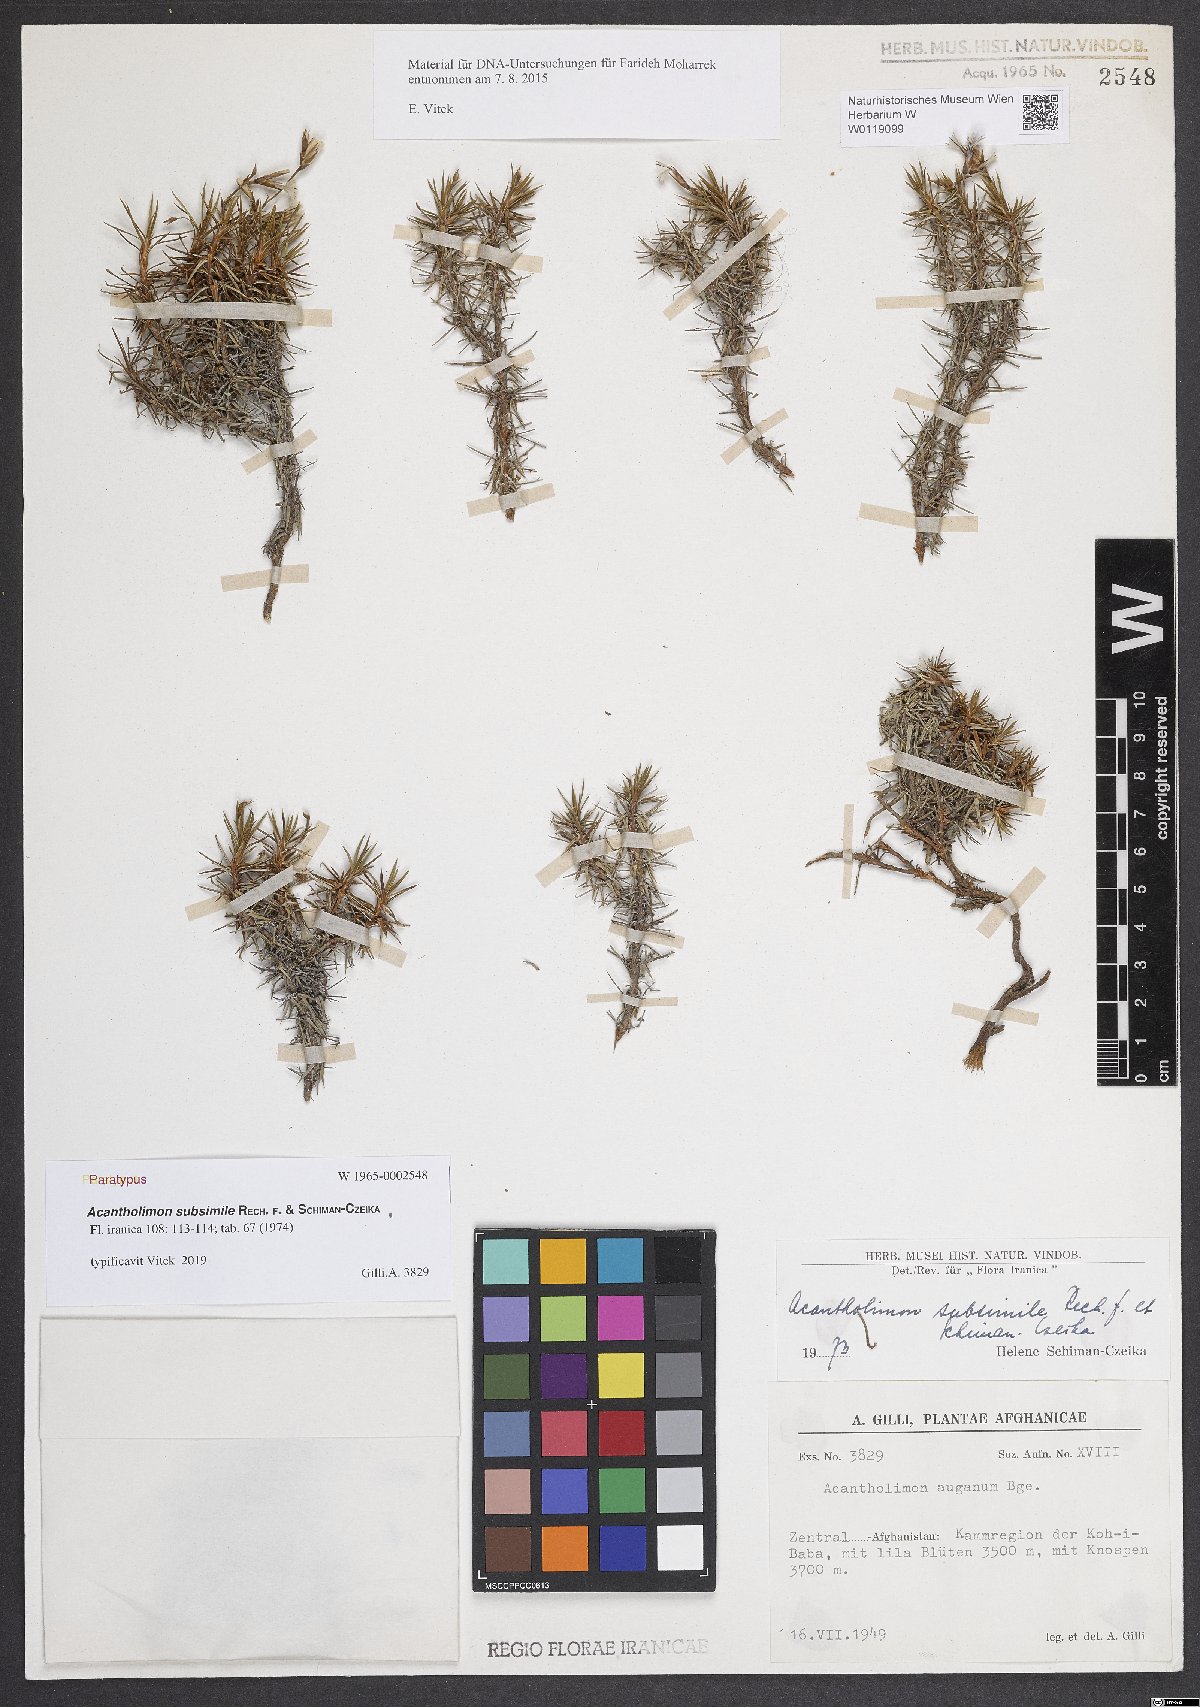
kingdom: Plantae
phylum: Tracheophyta
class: Magnoliopsida
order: Caryophyllales
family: Plumbaginaceae
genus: Acantholimon
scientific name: Acantholimon subsimile
